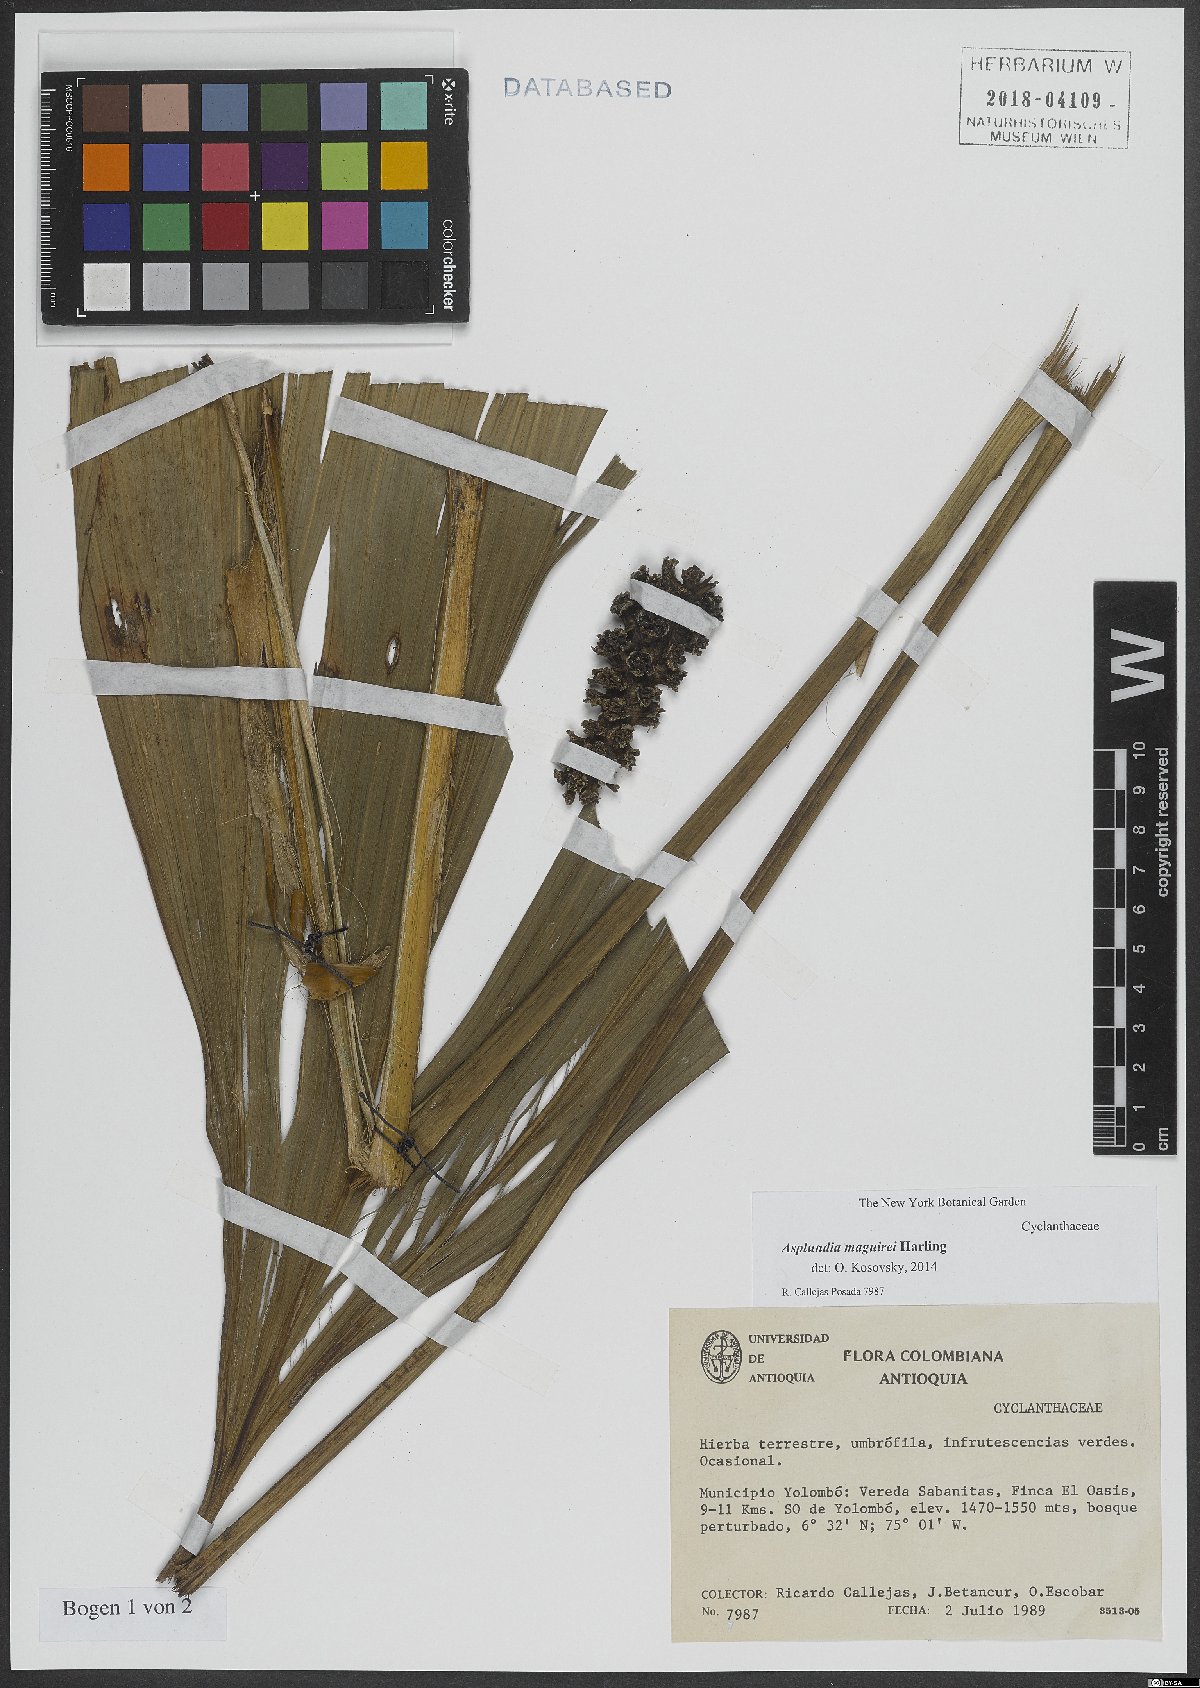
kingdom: Plantae
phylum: Tracheophyta
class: Liliopsida
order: Pandanales
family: Cyclanthaceae
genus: Asplundia
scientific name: Asplundia maguirei
